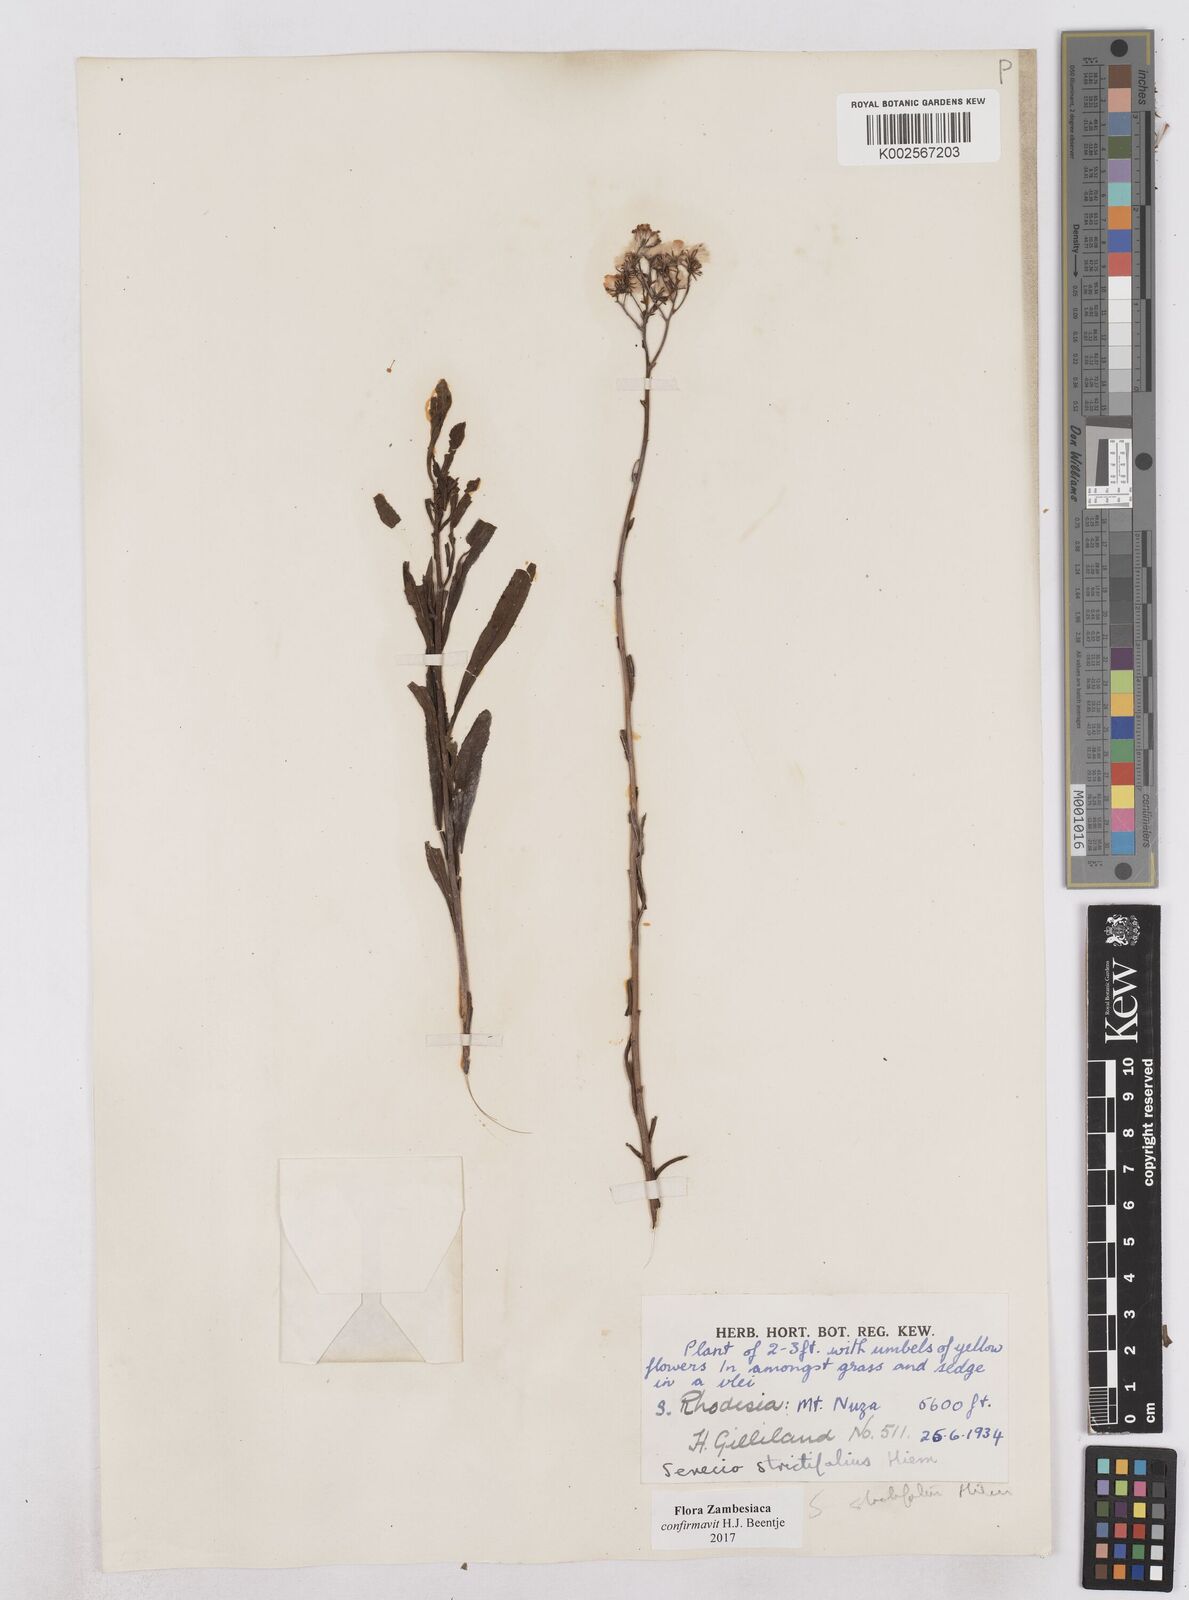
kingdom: Plantae
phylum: Tracheophyta
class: Magnoliopsida
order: Asterales
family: Asteraceae
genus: Senecio
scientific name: Senecio strictifolius
